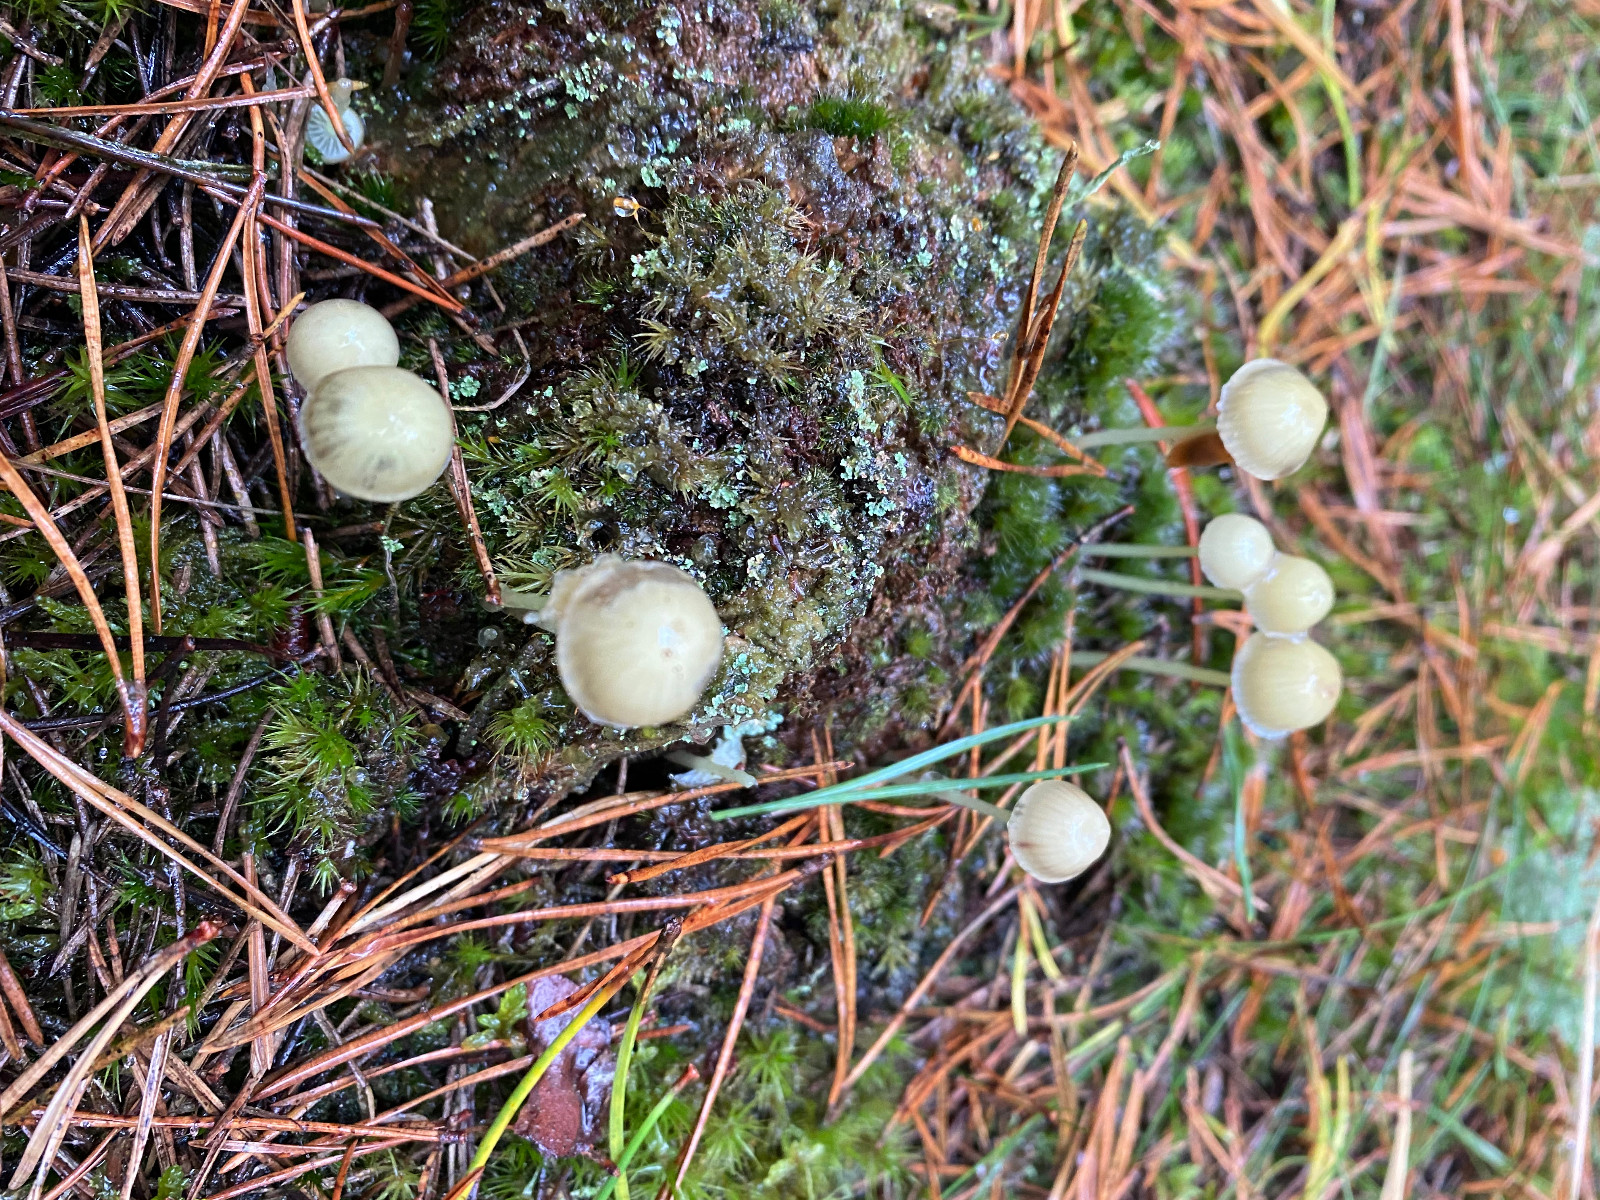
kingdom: Fungi
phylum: Basidiomycota
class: Agaricomycetes
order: Agaricales
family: Mycenaceae
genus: Mycena
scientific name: Mycena epipterygia
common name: gulstokket huesvamp
